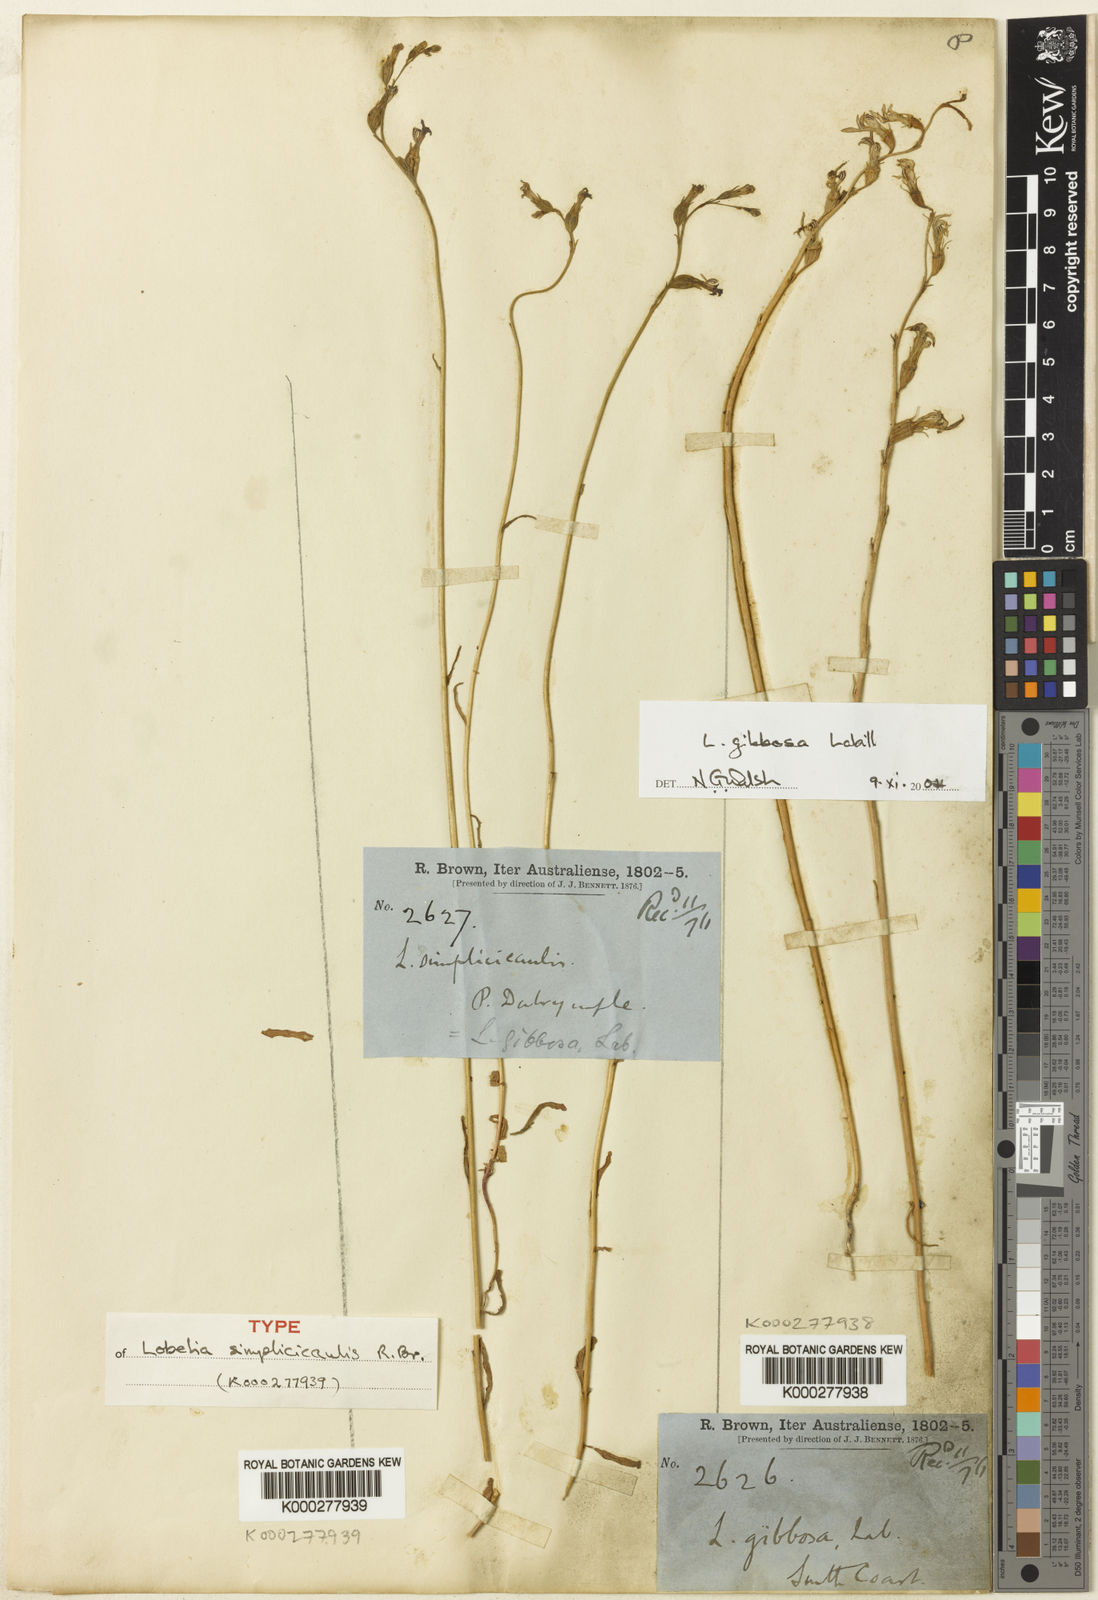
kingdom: Plantae
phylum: Tracheophyta
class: Magnoliopsida
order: Asterales
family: Campanulaceae
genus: Lobelia
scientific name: Lobelia simplicicaulis
